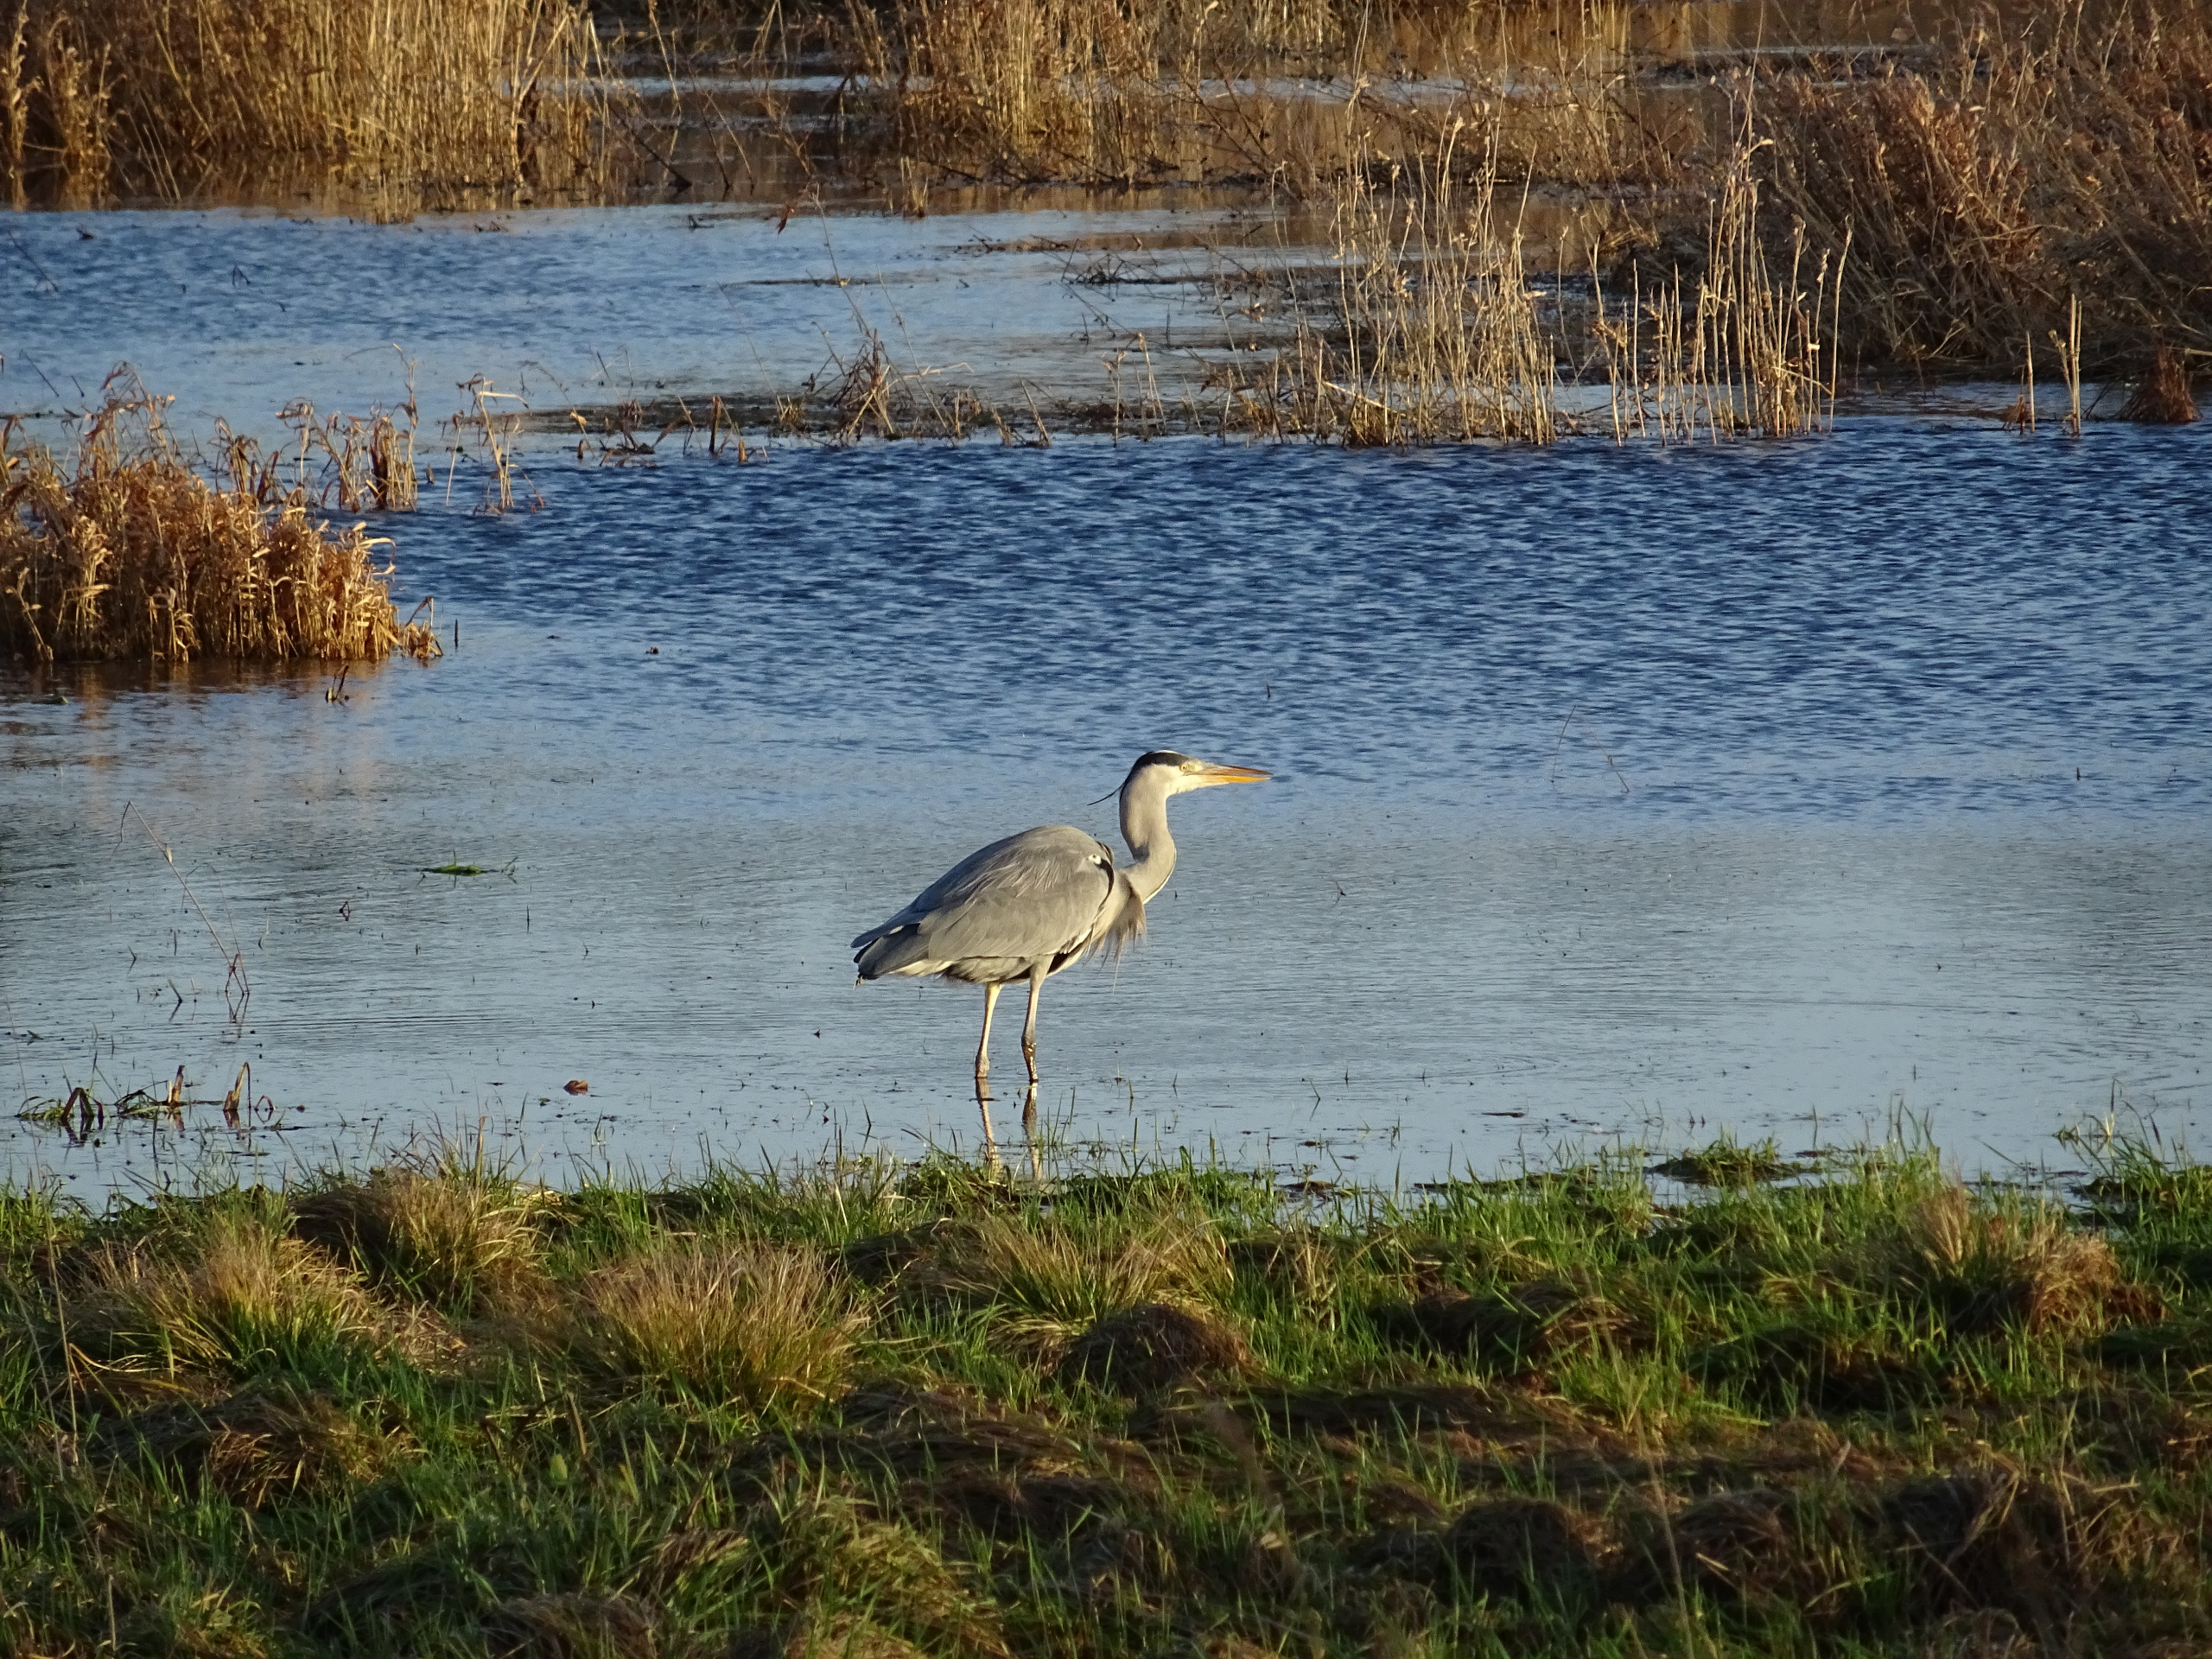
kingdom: Animalia
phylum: Chordata
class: Aves
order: Pelecaniformes
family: Ardeidae
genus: Ardea
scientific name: Ardea cinerea
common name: Fiskehejre
